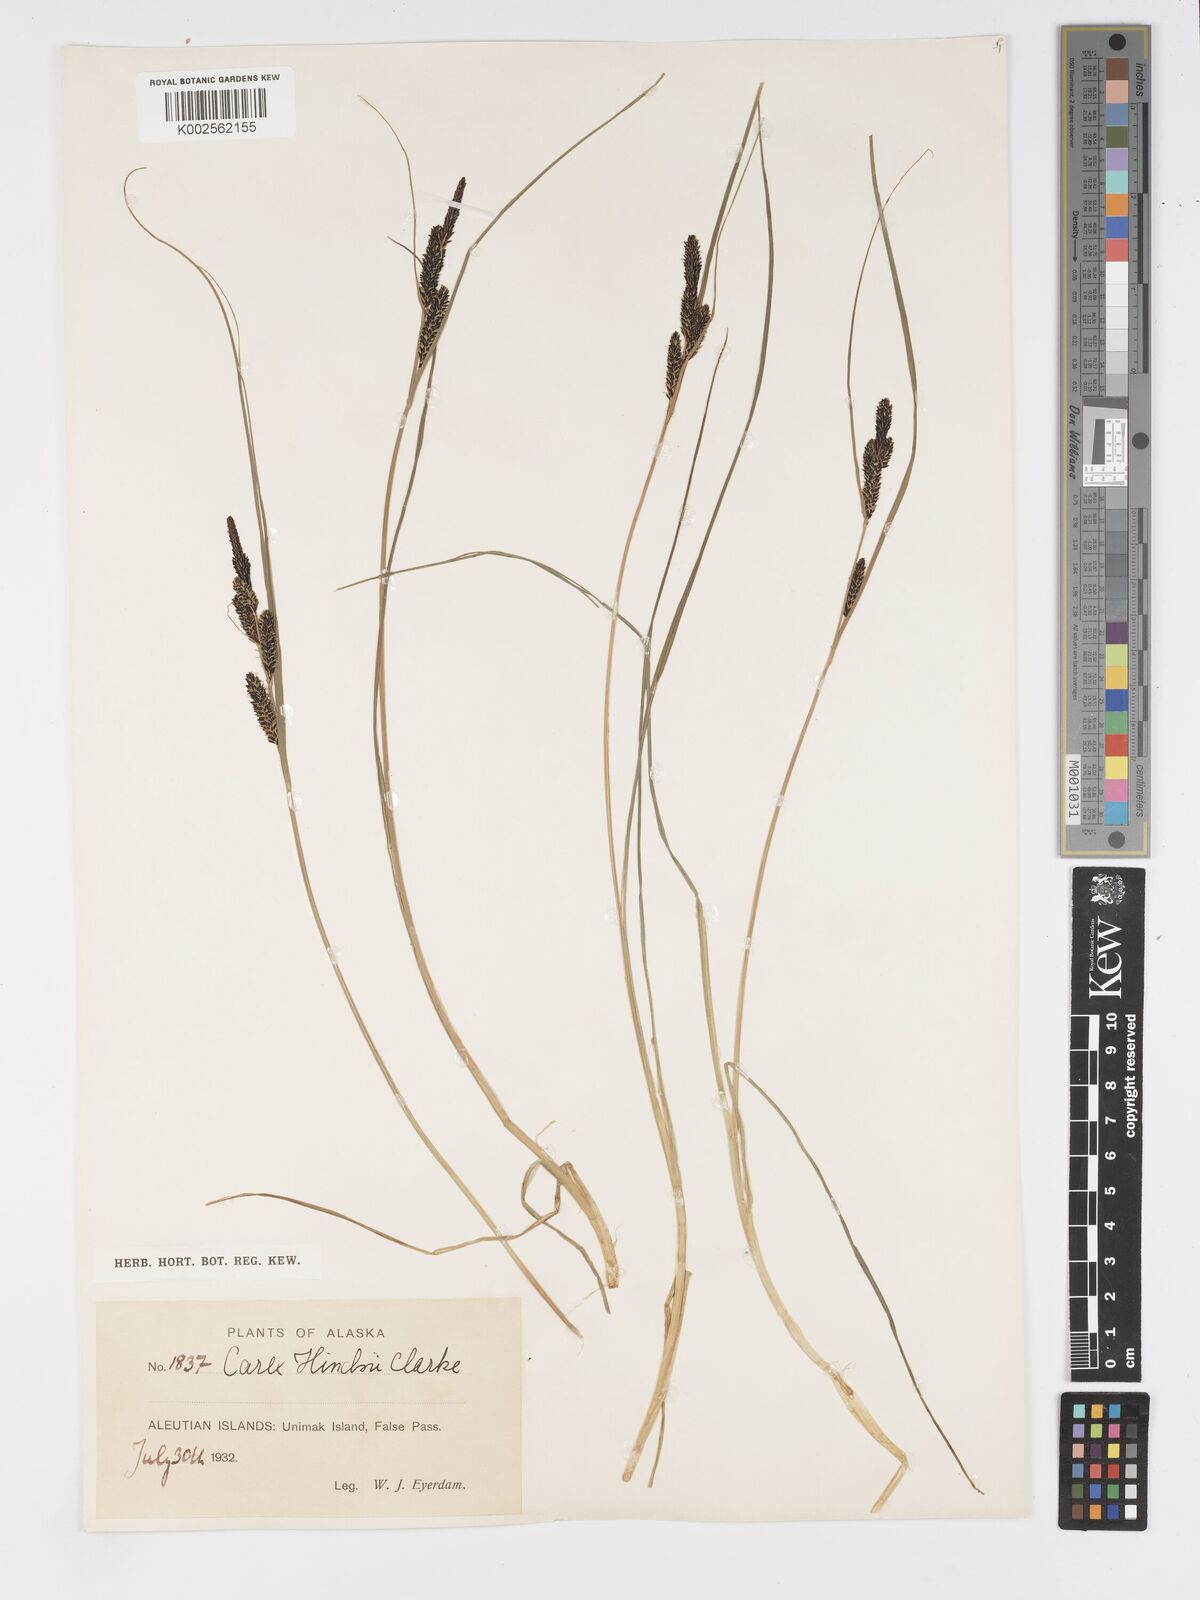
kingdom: Plantae
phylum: Tracheophyta
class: Liliopsida
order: Poales
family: Cyperaceae
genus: Carex
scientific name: Carex kelloggii
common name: Kellogg's sedge
